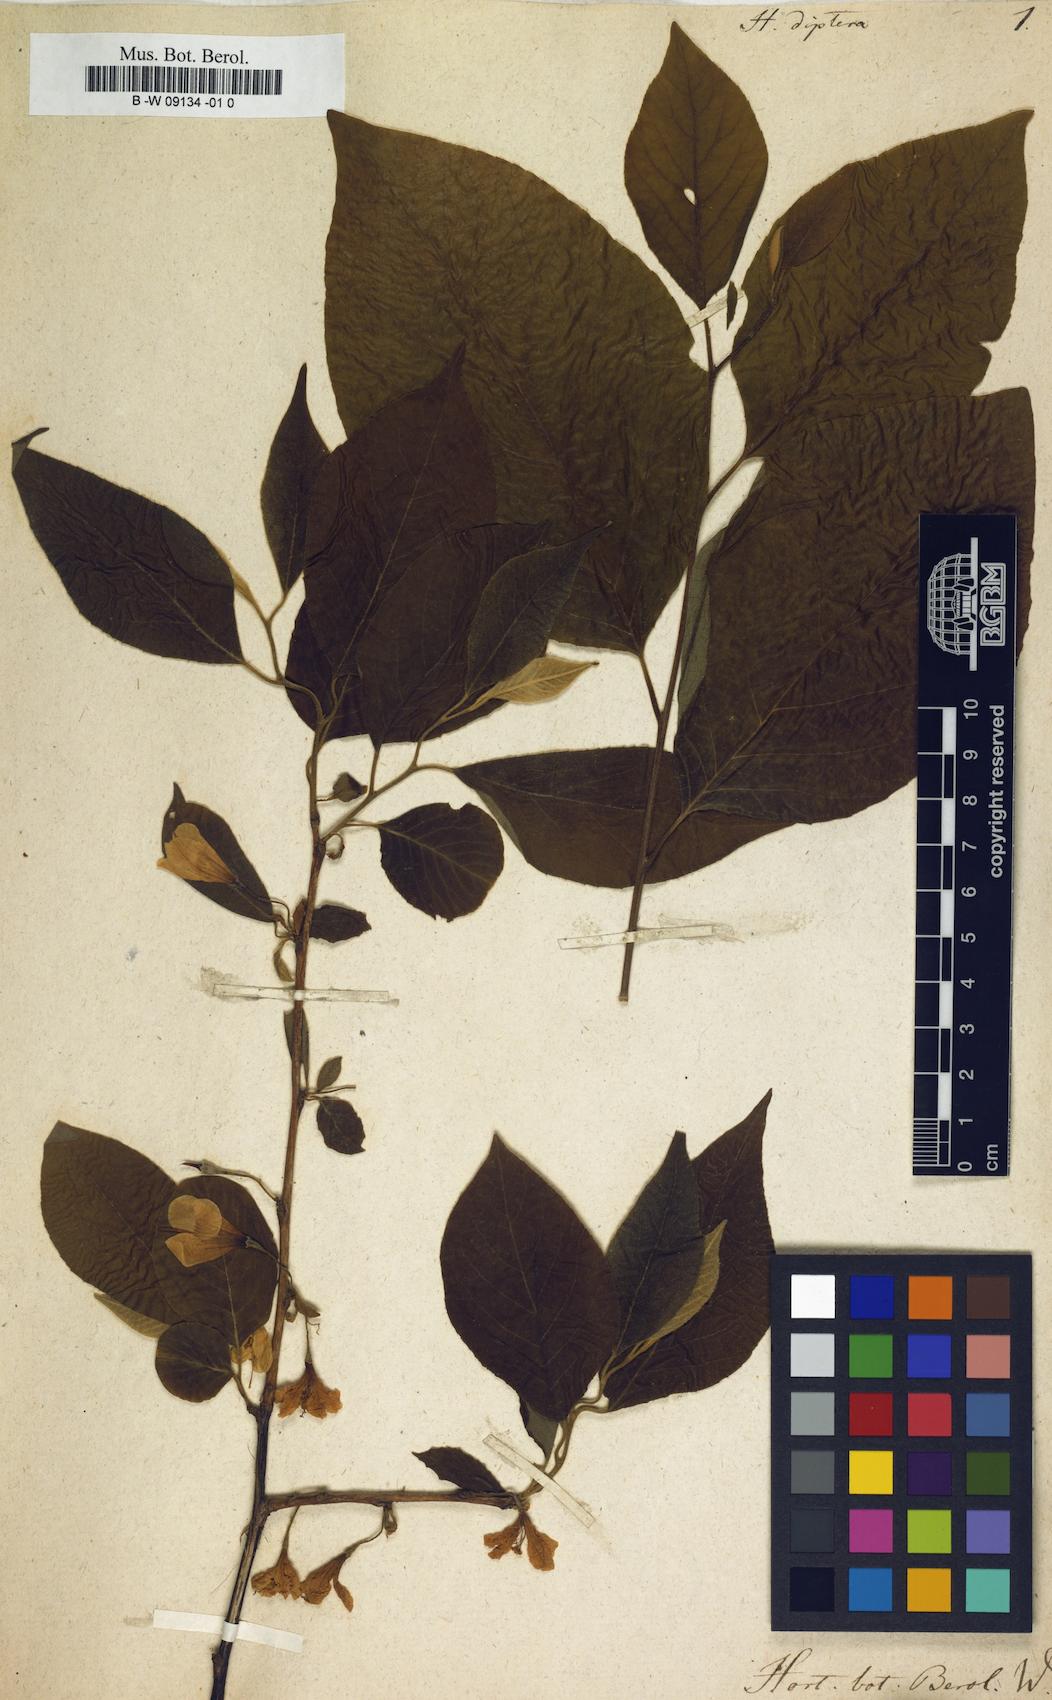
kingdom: Plantae
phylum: Tracheophyta
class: Magnoliopsida
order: Ericales
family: Styracaceae
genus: Halesia
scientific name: Halesia diptera
